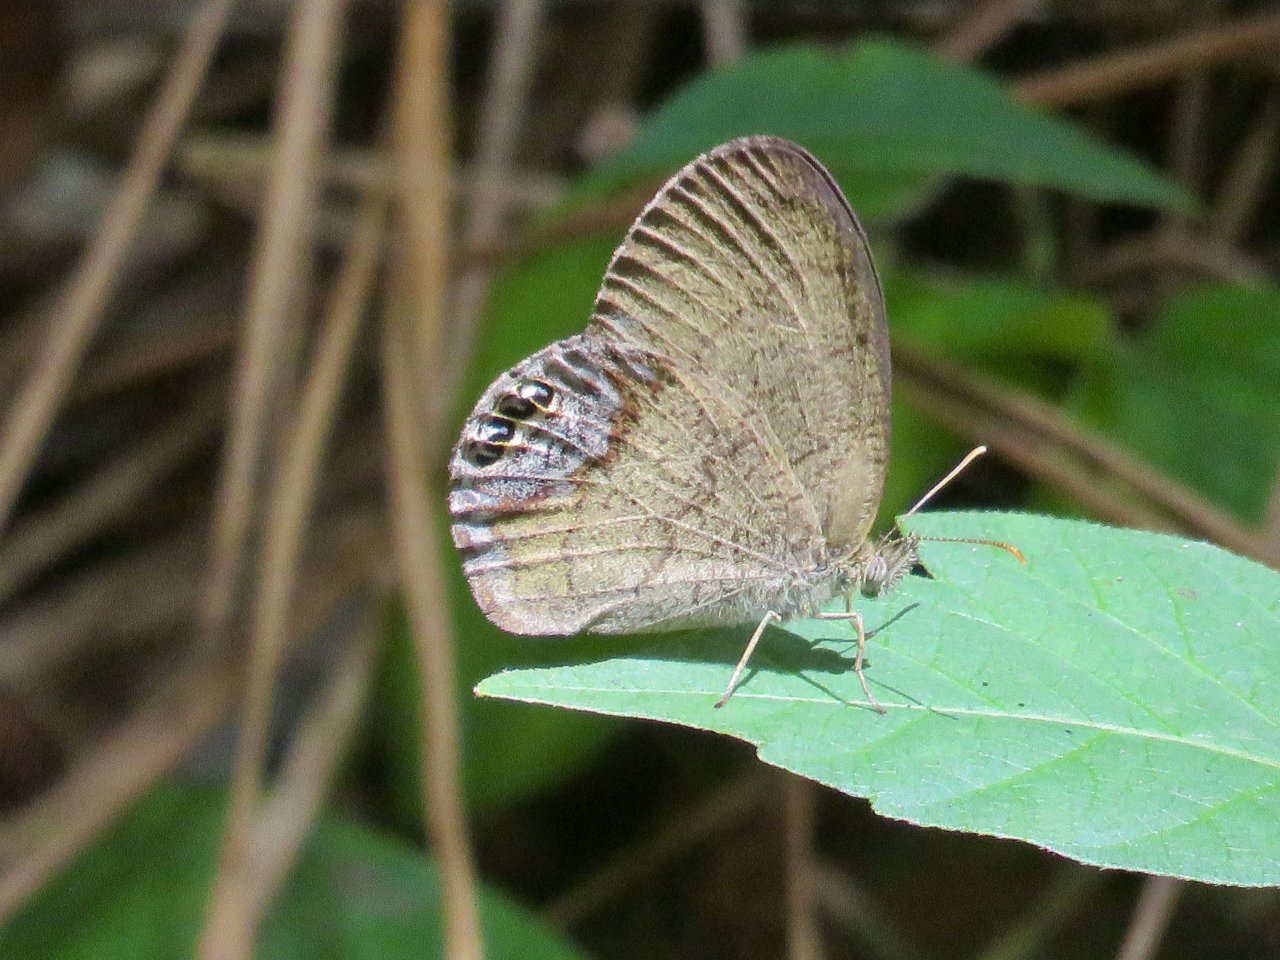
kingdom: Animalia
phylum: Arthropoda
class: Insecta
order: Lepidoptera
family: Nymphalidae
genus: Euptychia
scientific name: Euptychia cornelius
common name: Gemmed Satyr
